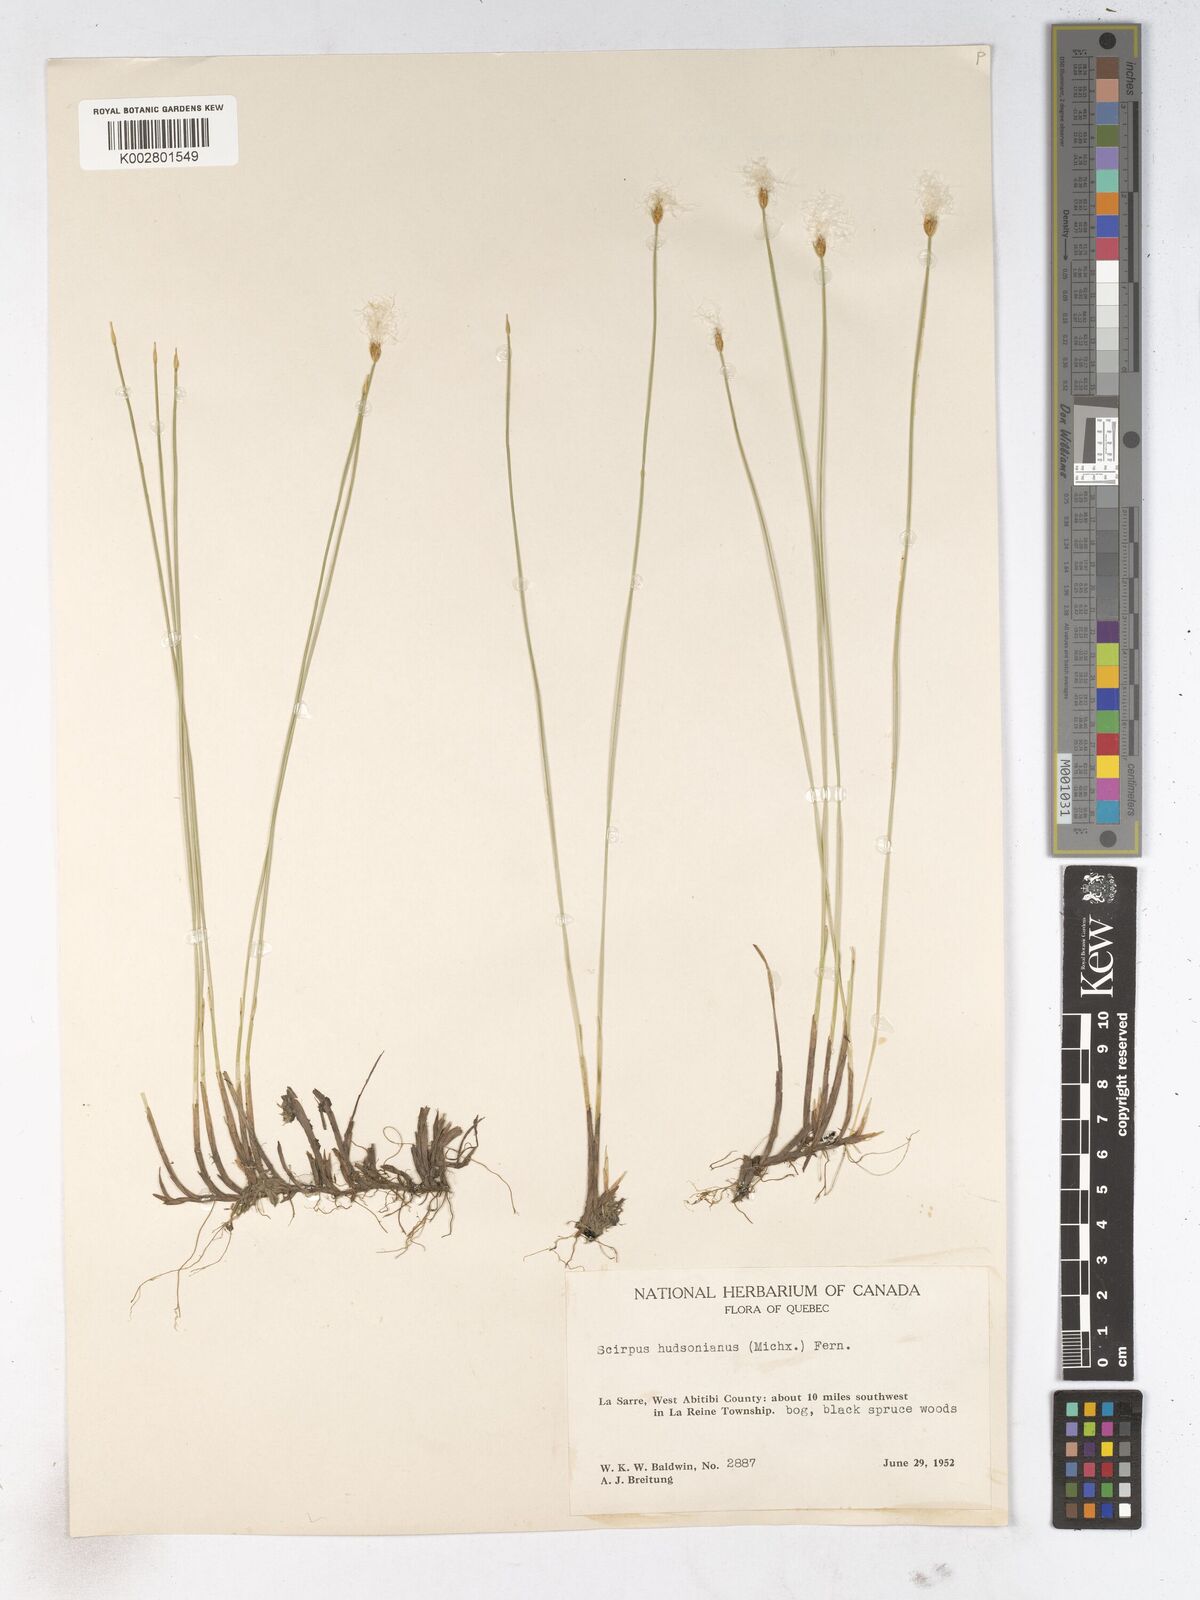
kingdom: Plantae
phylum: Tracheophyta
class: Liliopsida
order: Poales
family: Cyperaceae
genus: Trichophorum
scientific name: Trichophorum alpinum
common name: Alpine bulrush
